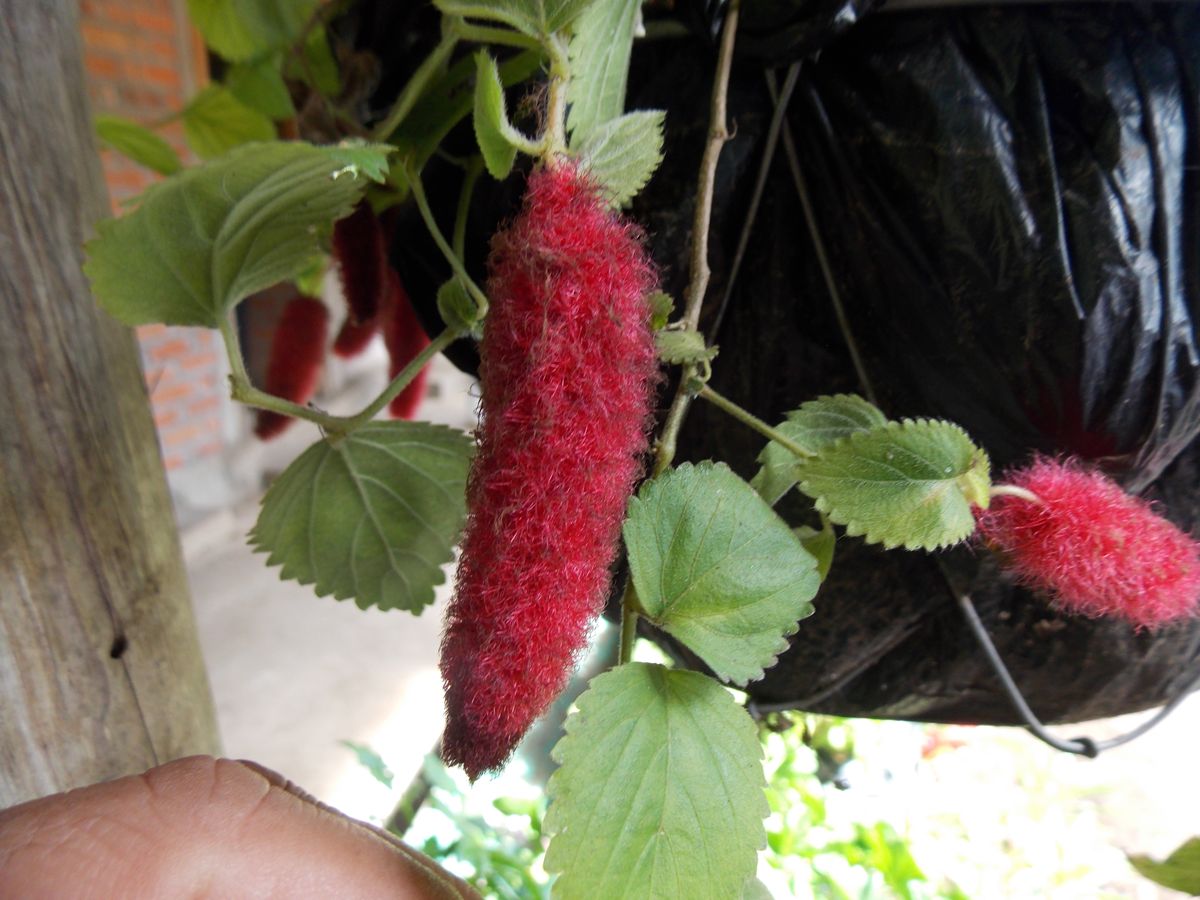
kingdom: Plantae
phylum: Tracheophyta
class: Magnoliopsida
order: Malpighiales
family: Euphorbiaceae
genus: Acalypha
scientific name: Acalypha pendula
